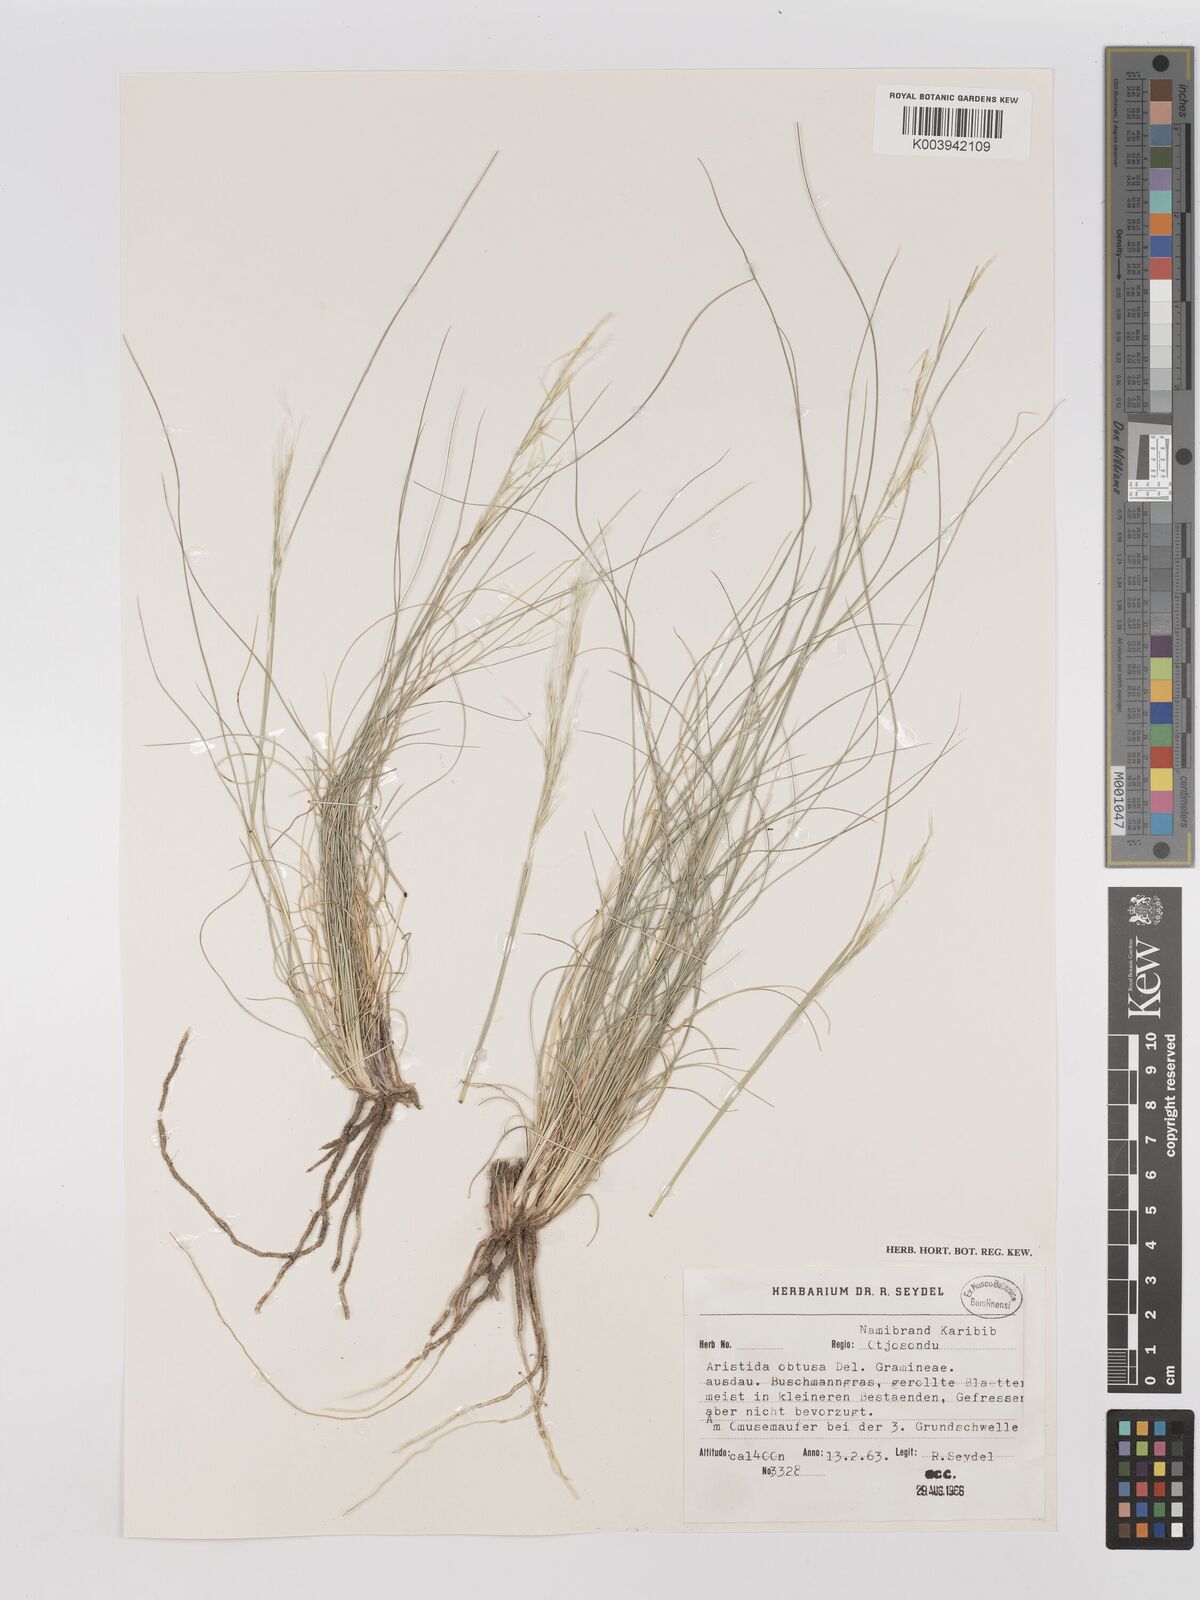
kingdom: Plantae
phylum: Tracheophyta
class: Liliopsida
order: Poales
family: Poaceae
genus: Stipagrostis
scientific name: Stipagrostis obtusa
